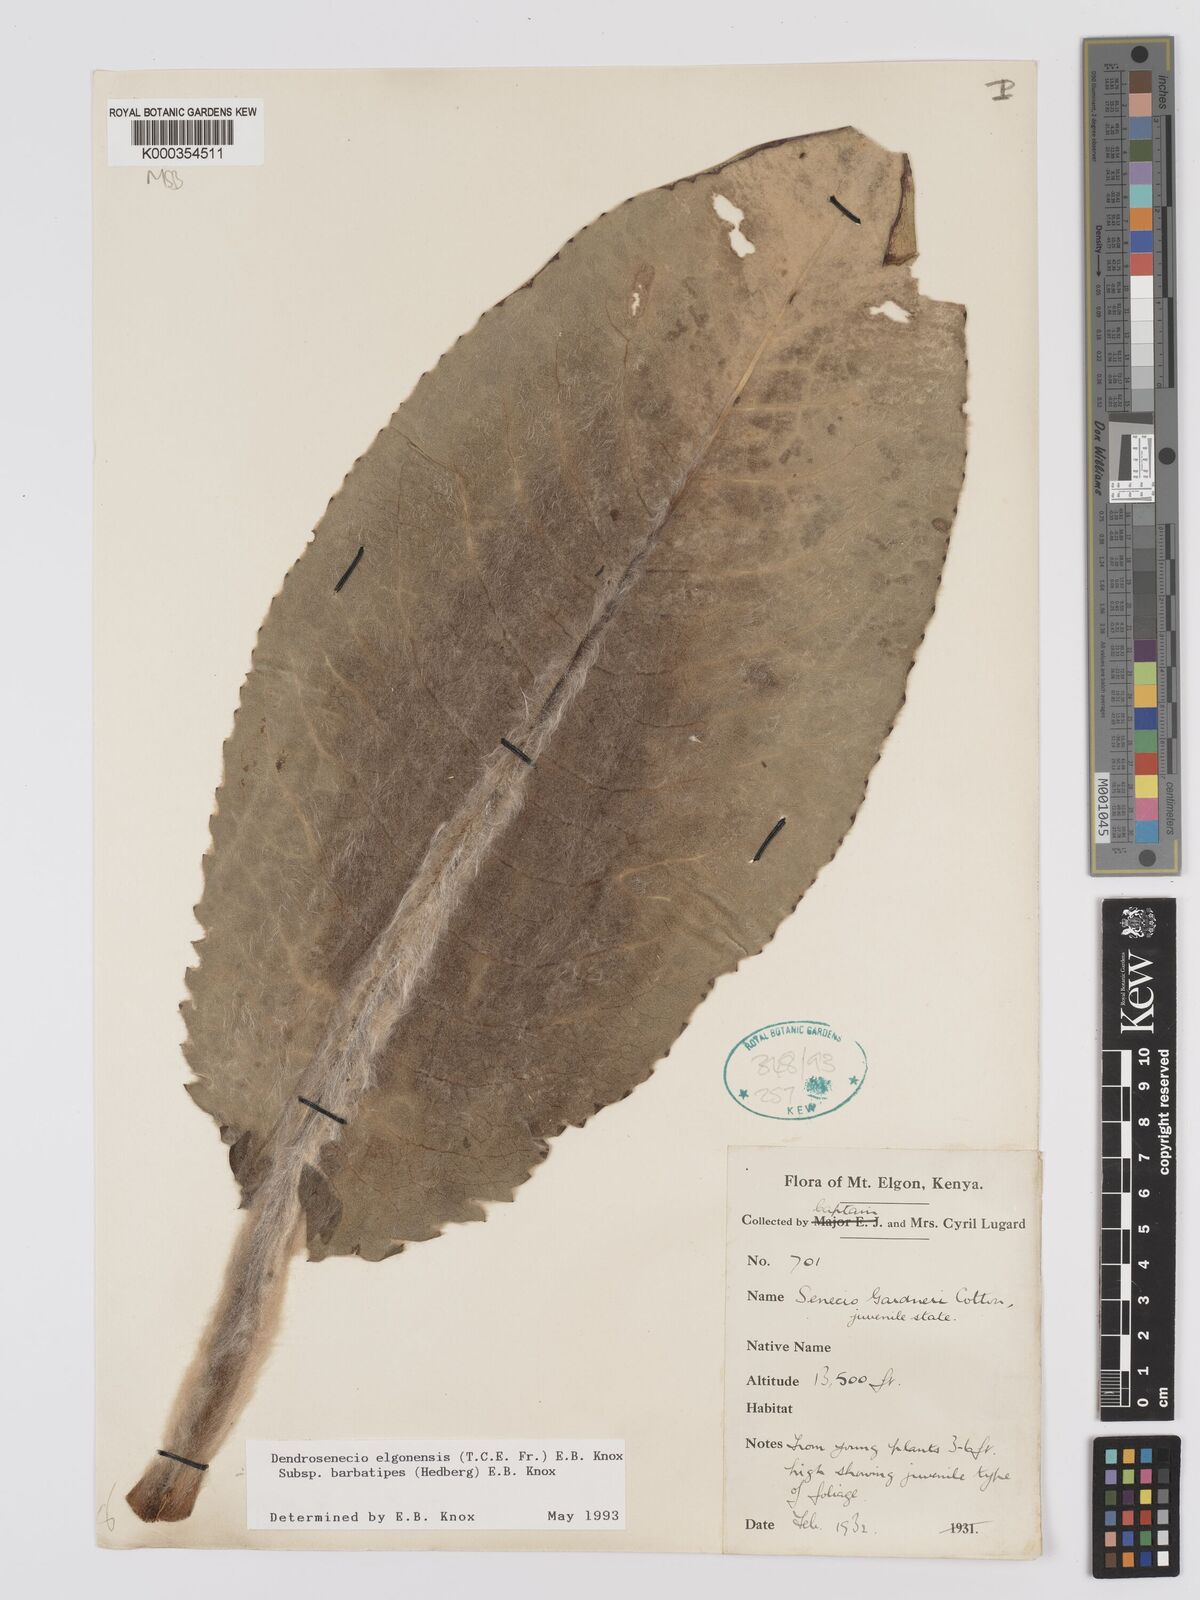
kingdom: Plantae
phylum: Tracheophyta
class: Magnoliopsida
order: Asterales
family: Asteraceae
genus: Dendrosenecio
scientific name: Dendrosenecio elgonensis
